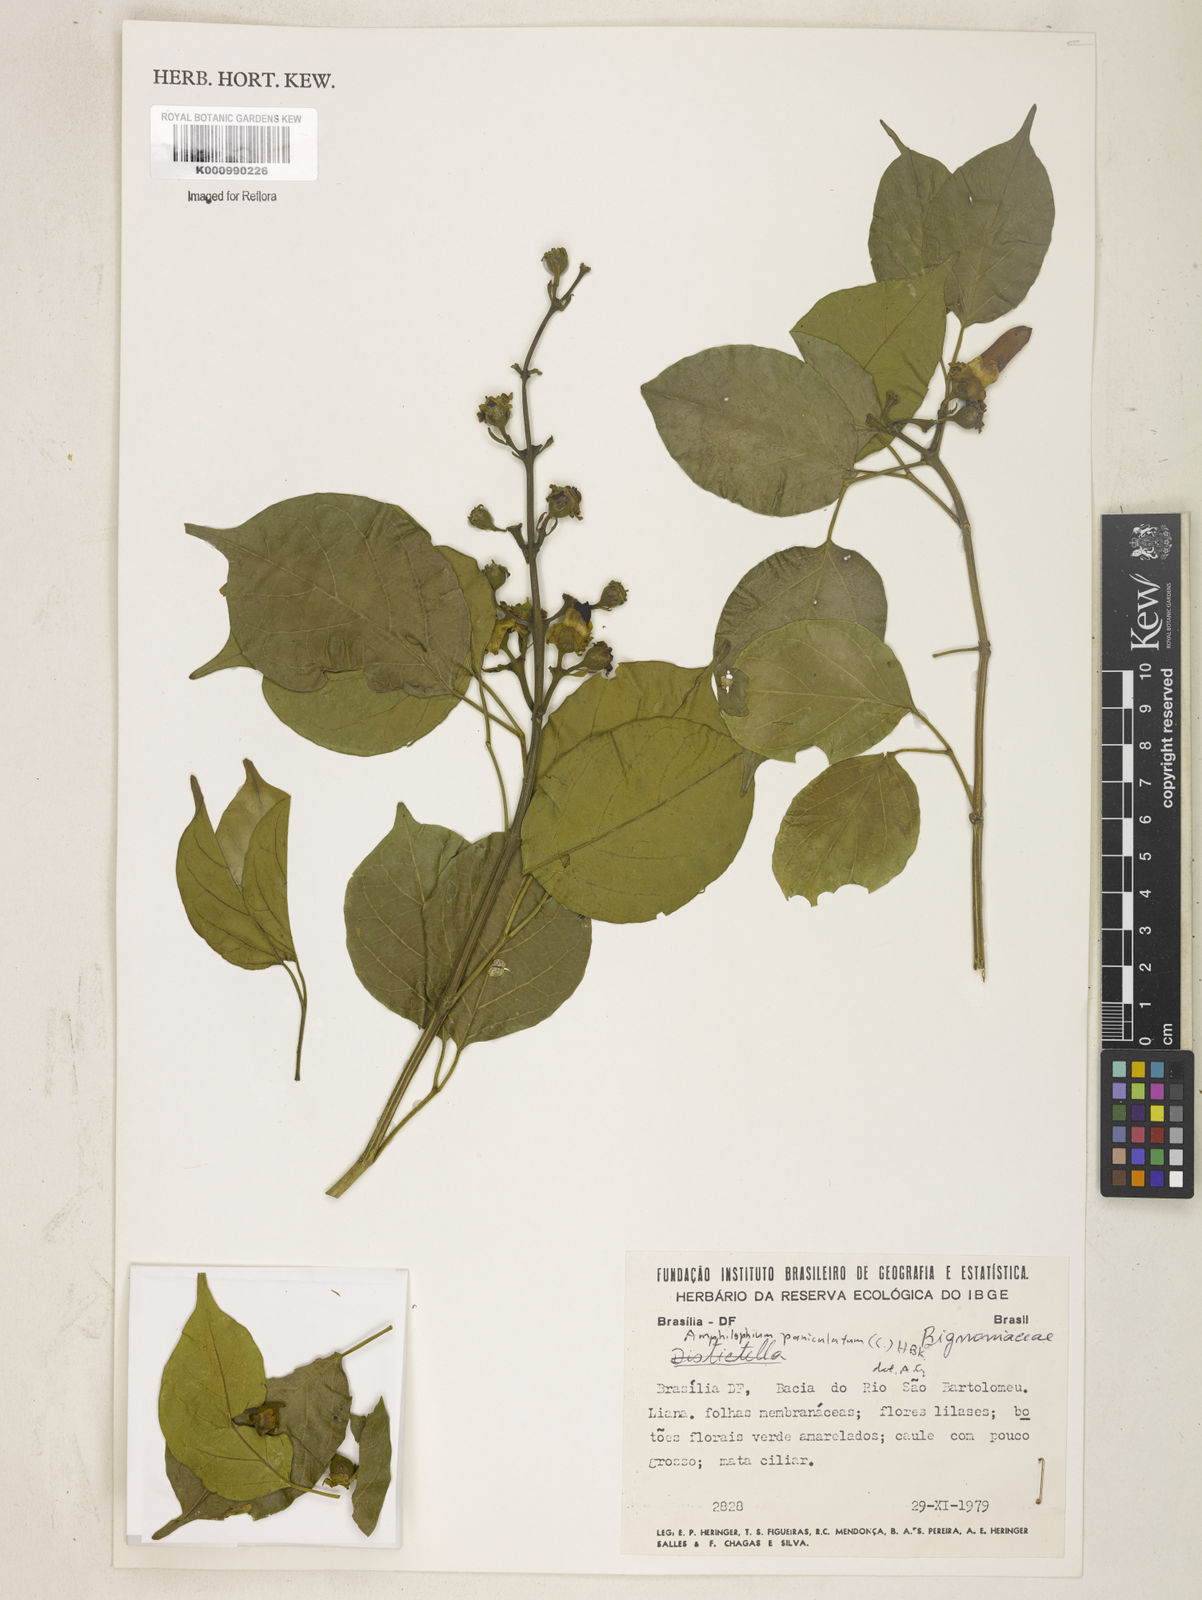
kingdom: Plantae
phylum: Tracheophyta
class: Magnoliopsida
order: Lamiales
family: Bignoniaceae
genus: Amphilophium
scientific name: Amphilophium paniculatum
